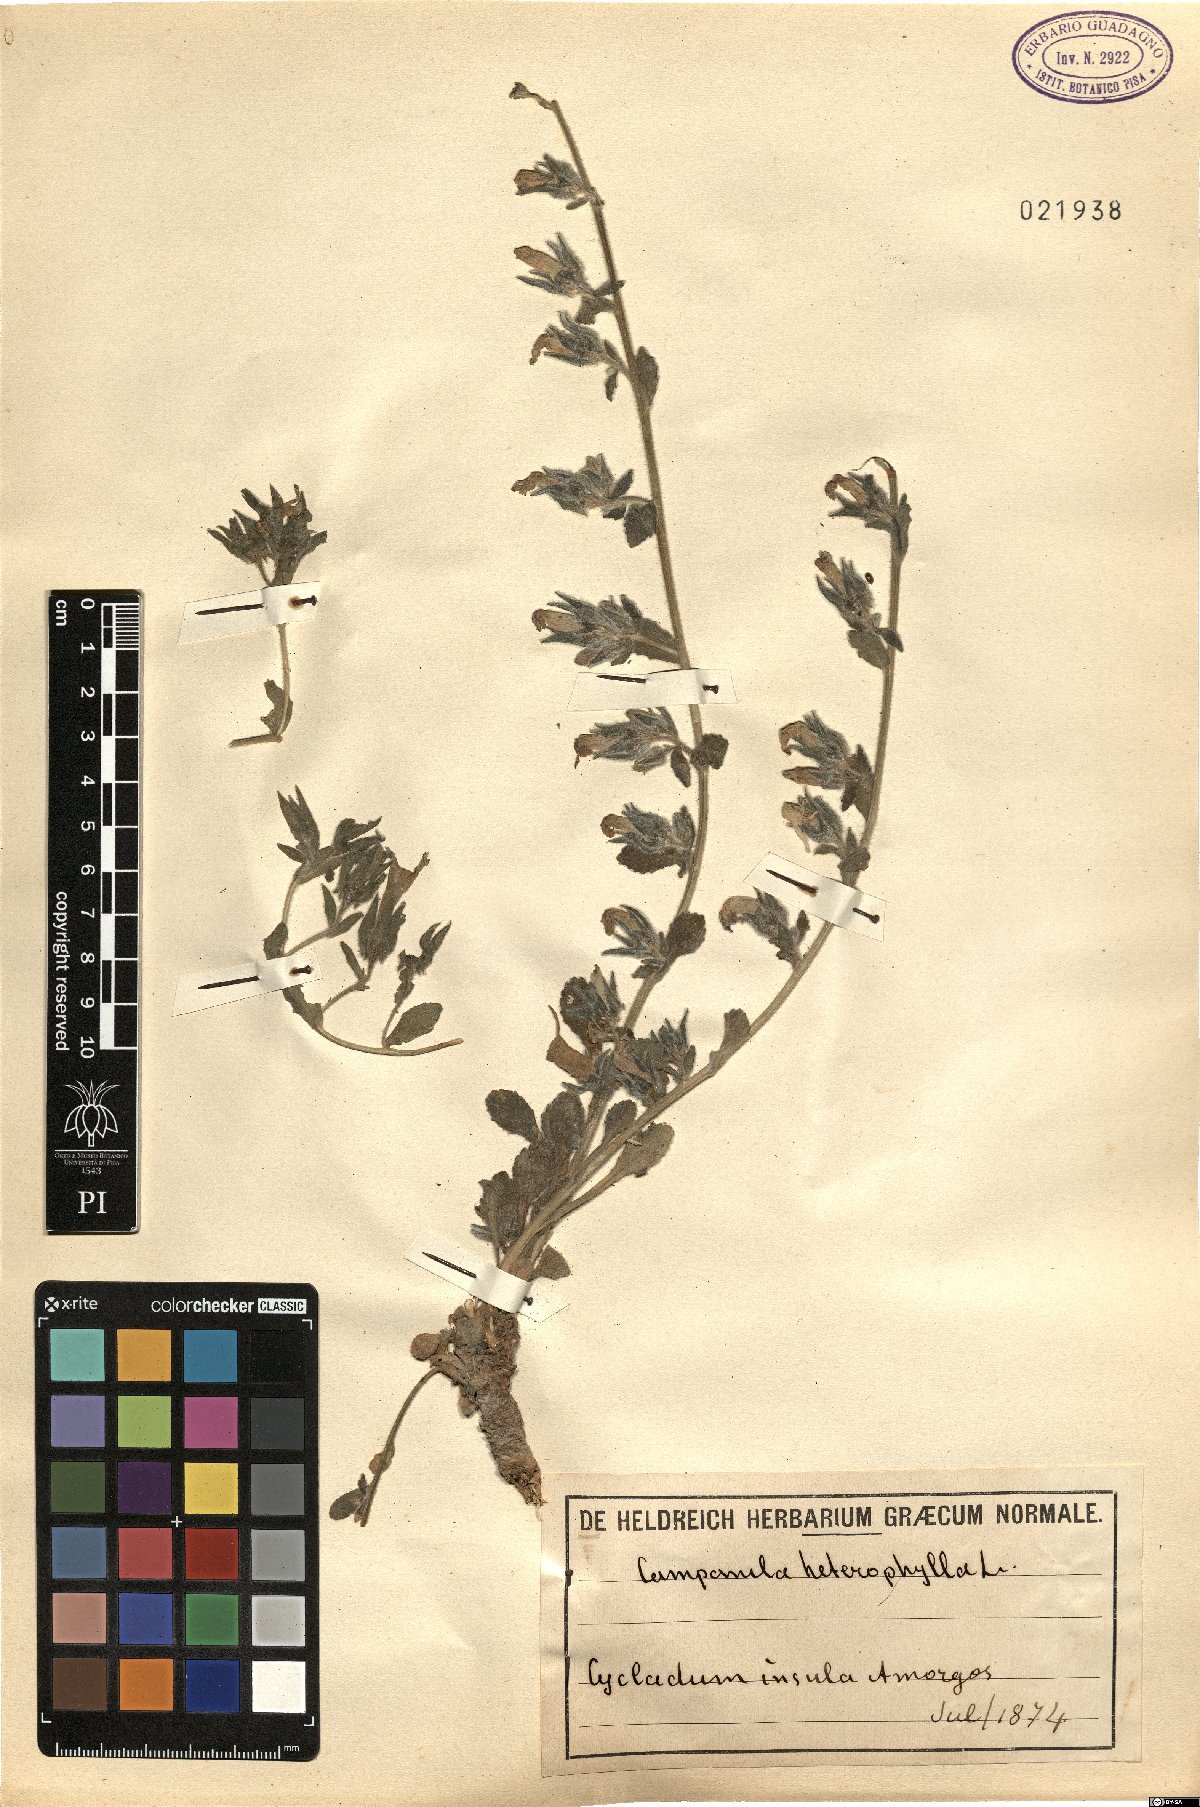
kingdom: Plantae
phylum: Tracheophyta
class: Magnoliopsida
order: Asterales
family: Campanulaceae
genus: Campanula
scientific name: Campanula heterophylla
